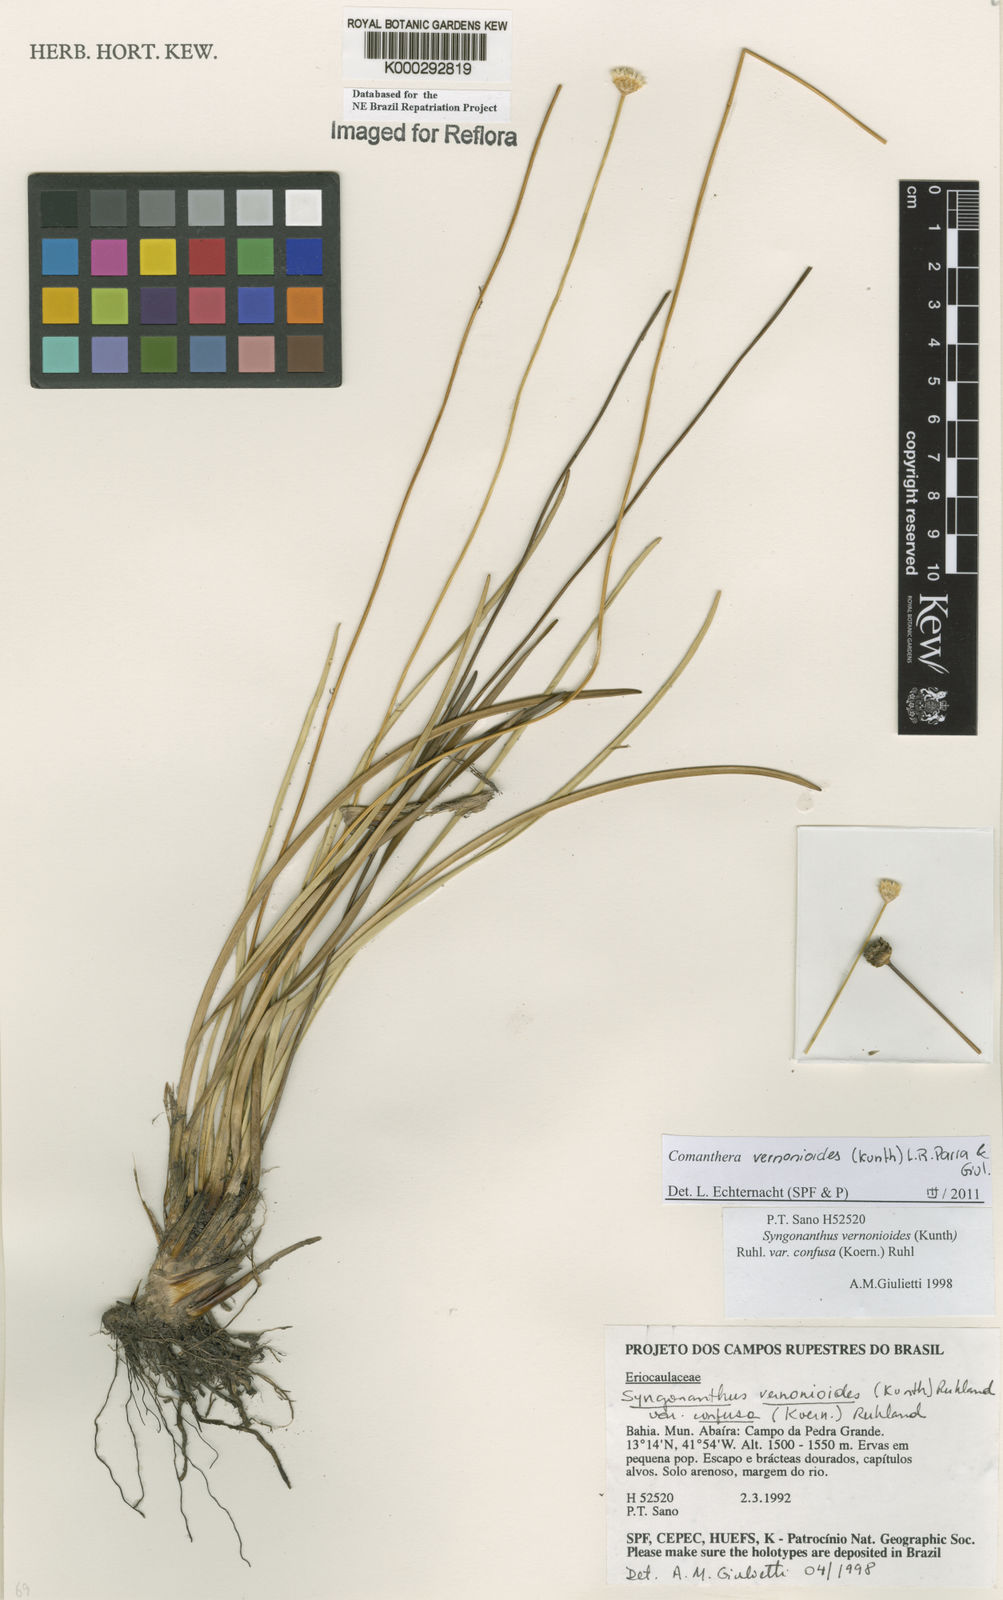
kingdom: Plantae
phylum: Tracheophyta
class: Liliopsida
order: Poales
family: Eriocaulaceae
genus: Comanthera
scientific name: Comanthera centauroides
